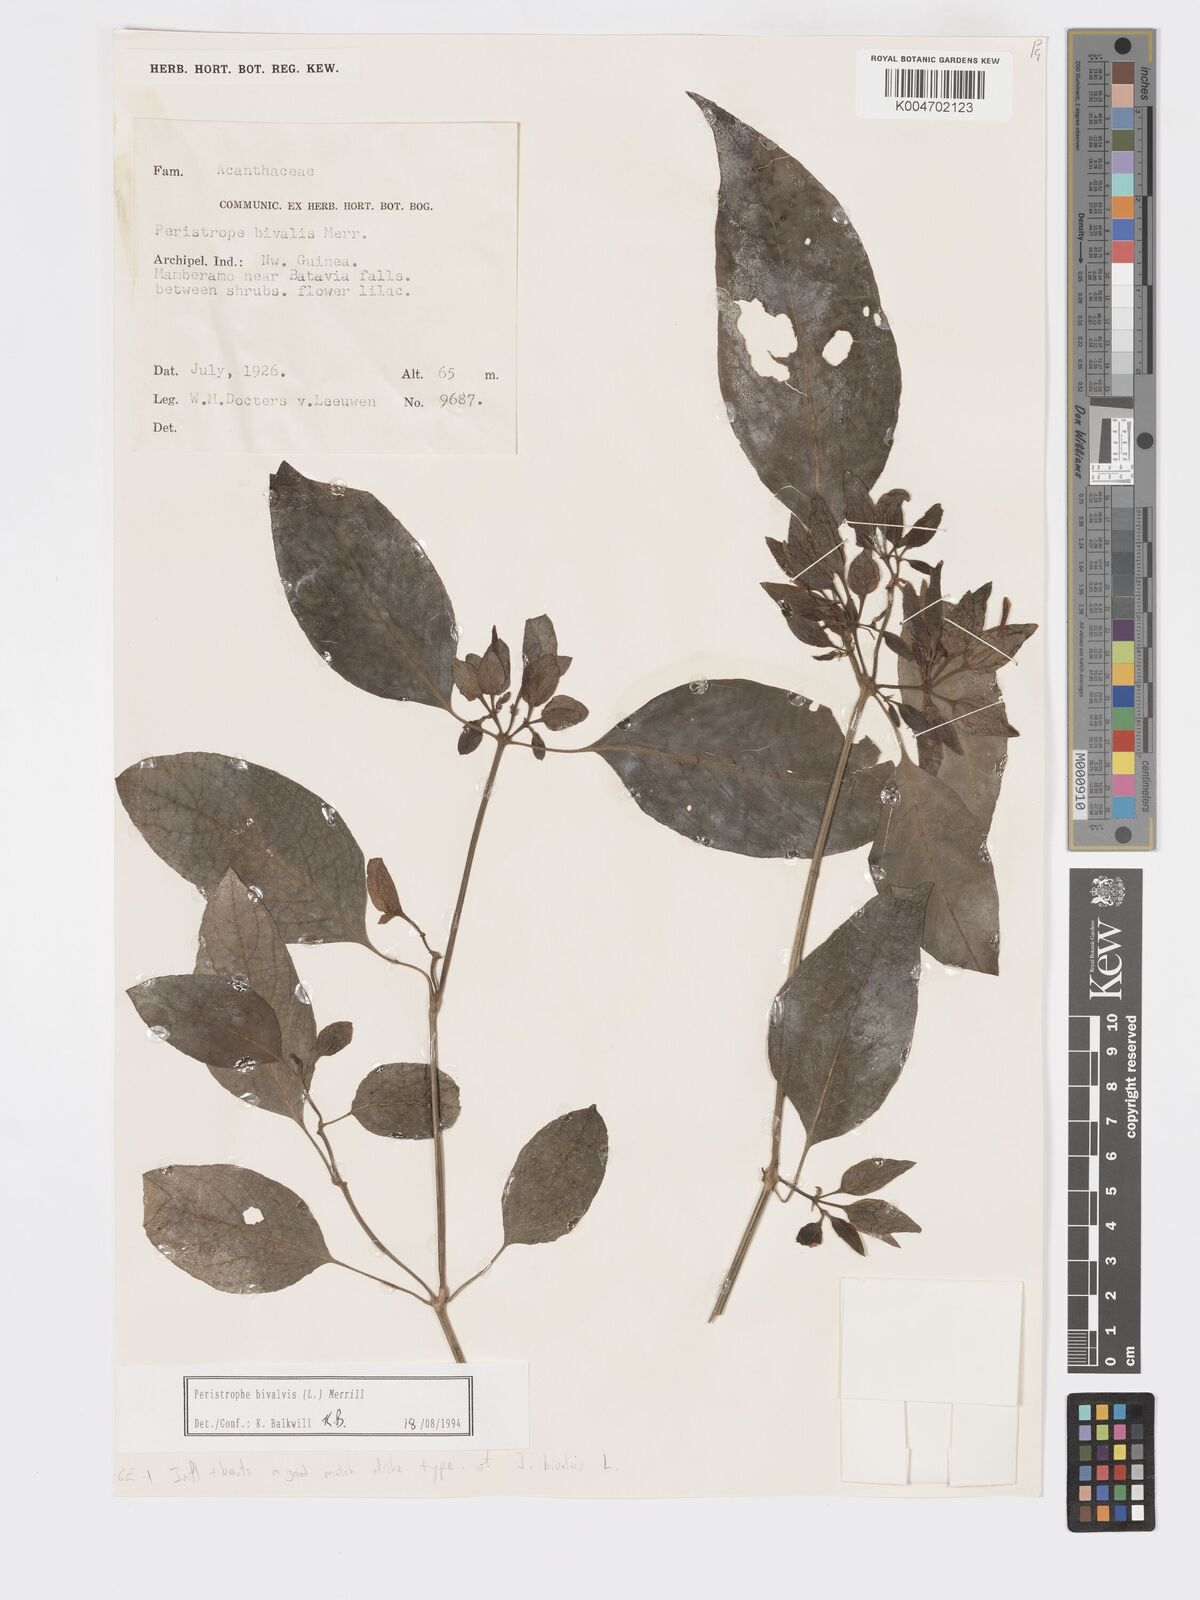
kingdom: Plantae
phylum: Tracheophyta
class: Magnoliopsida
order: Lamiales
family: Acanthaceae
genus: Dicliptera
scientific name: Dicliptera
